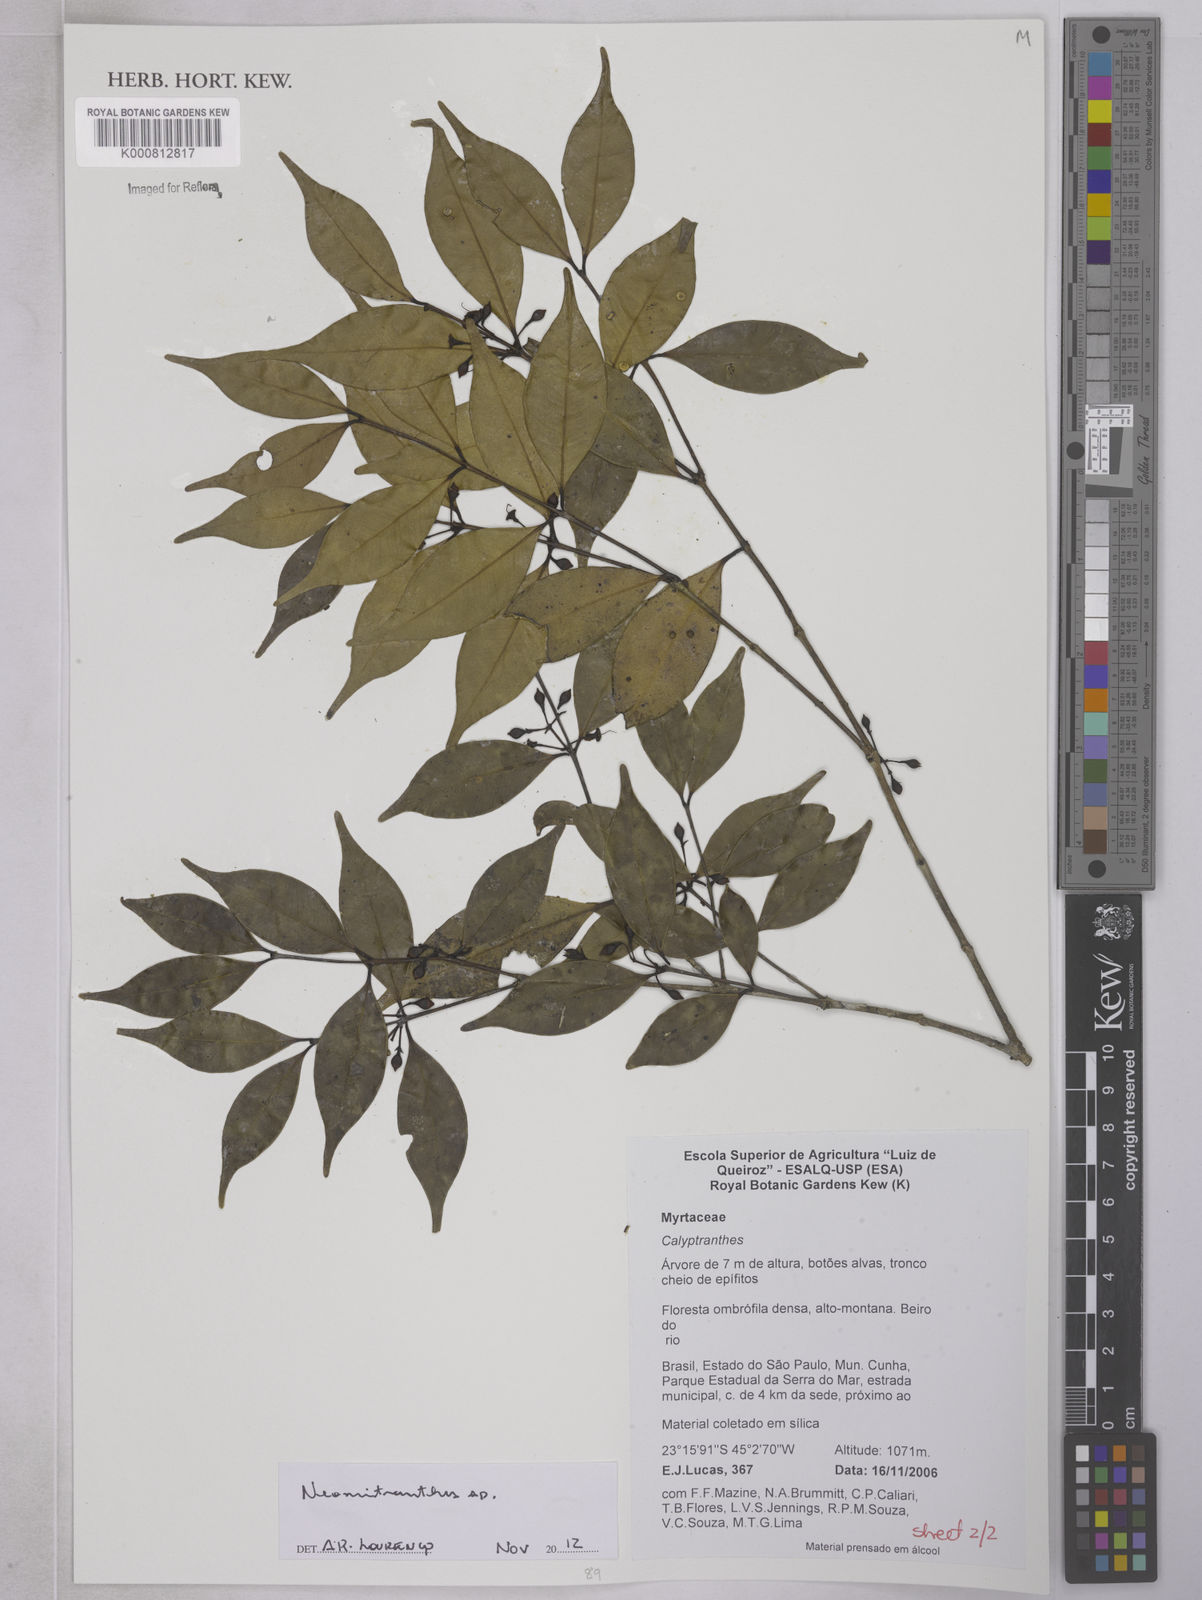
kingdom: Plantae
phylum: Tracheophyta
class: Magnoliopsida
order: Myrtales
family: Myrtaceae
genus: Neomitranthes
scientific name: Neomitranthes capivariensis
